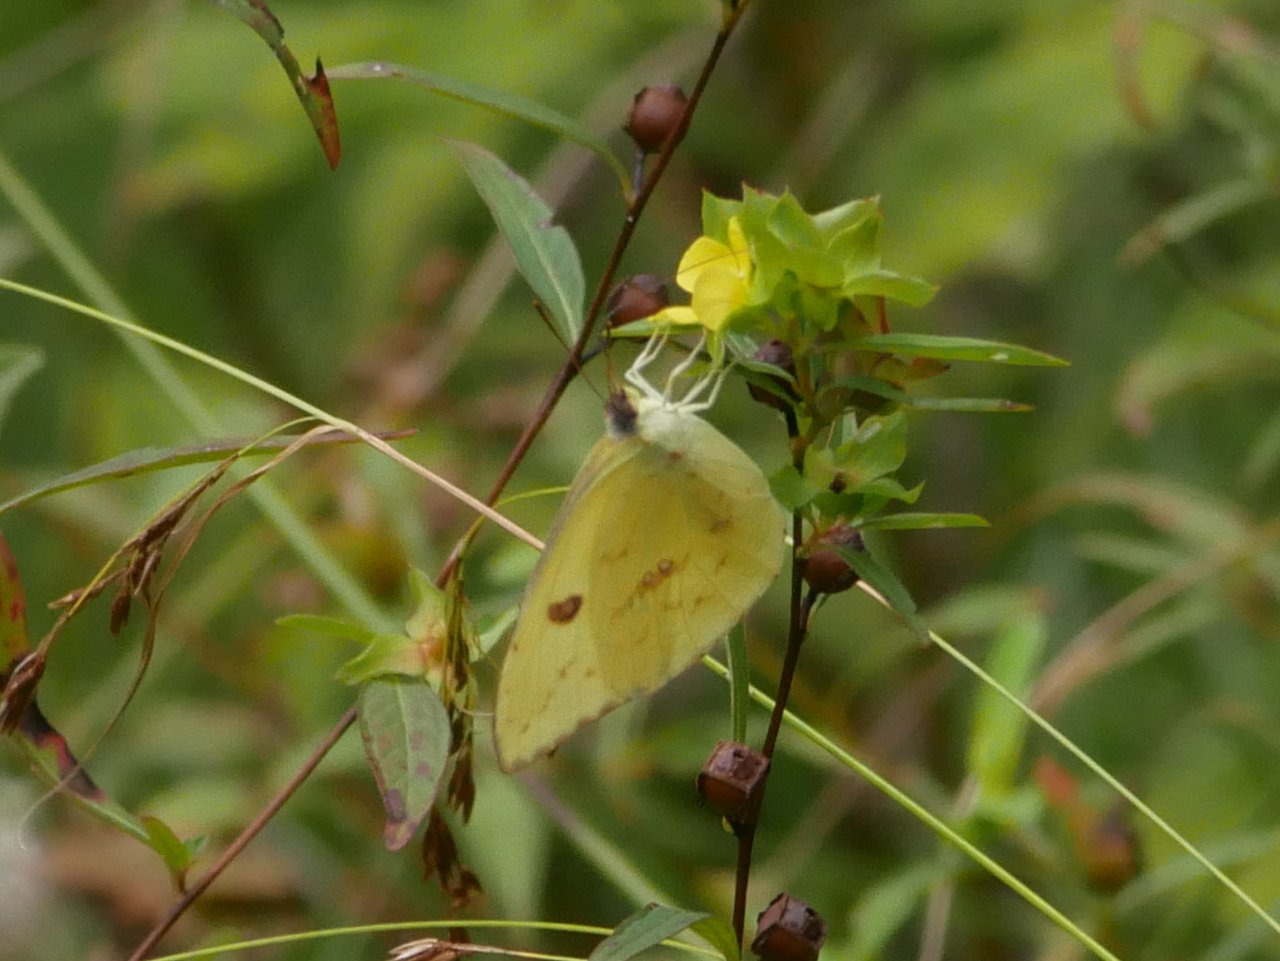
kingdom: Animalia
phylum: Arthropoda
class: Insecta
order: Lepidoptera
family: Pieridae
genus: Phoebis
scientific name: Phoebis sennae
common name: Cloudless Sulphur
